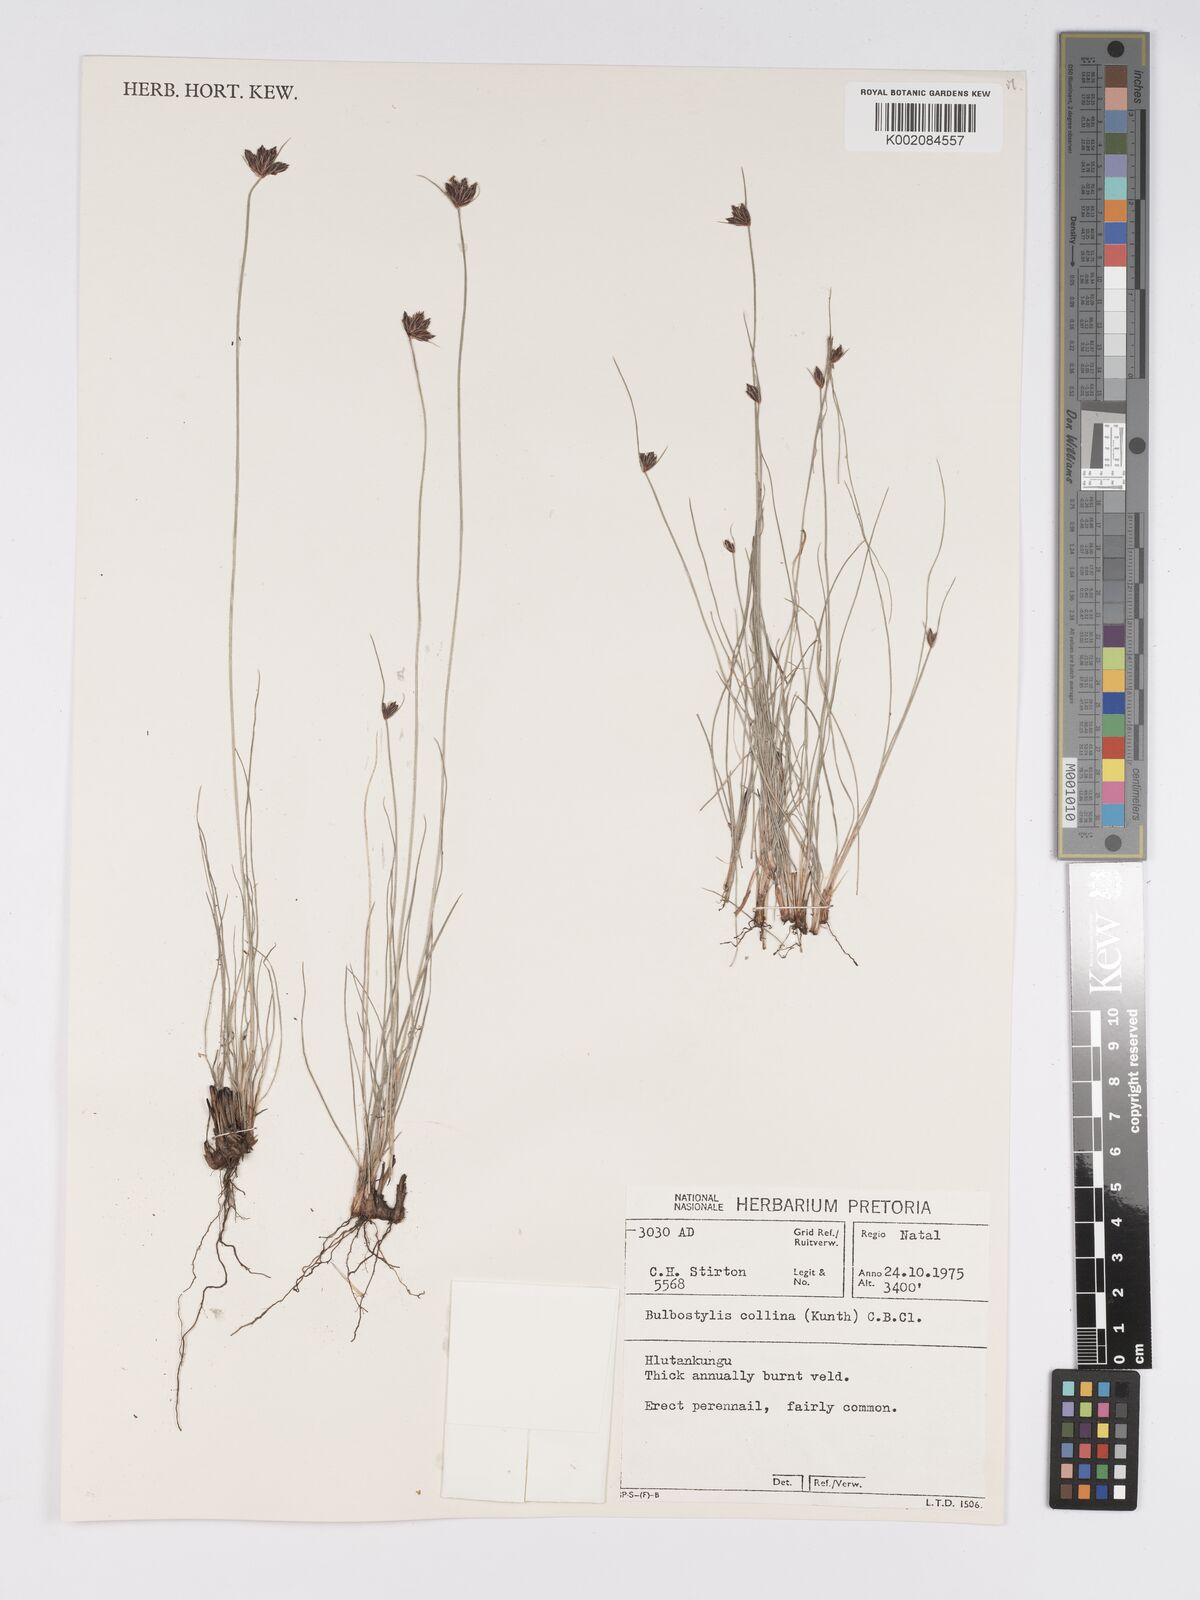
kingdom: Plantae
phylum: Tracheophyta
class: Liliopsida
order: Poales
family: Cyperaceae
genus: Bulbostylis
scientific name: Bulbostylis contexta
